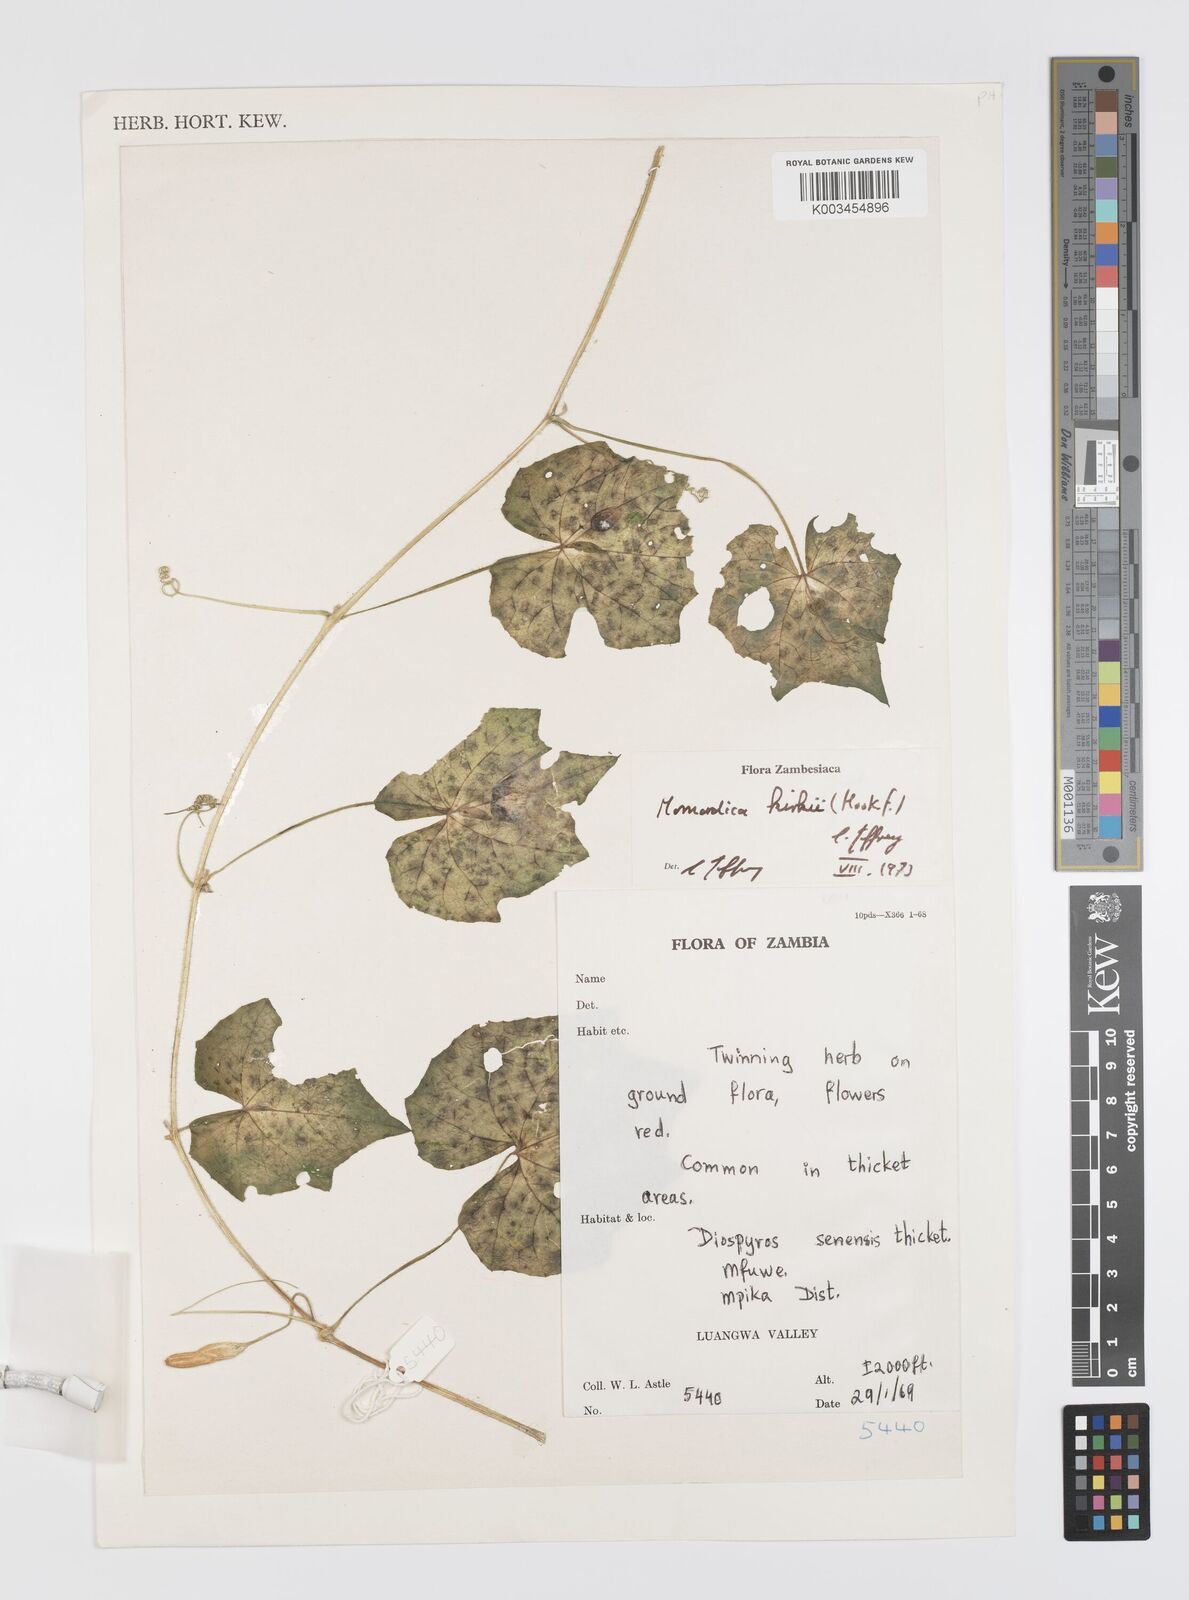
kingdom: Plantae
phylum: Tracheophyta
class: Magnoliopsida
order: Cucurbitales
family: Cucurbitaceae
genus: Momordica
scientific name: Momordica kirkii
